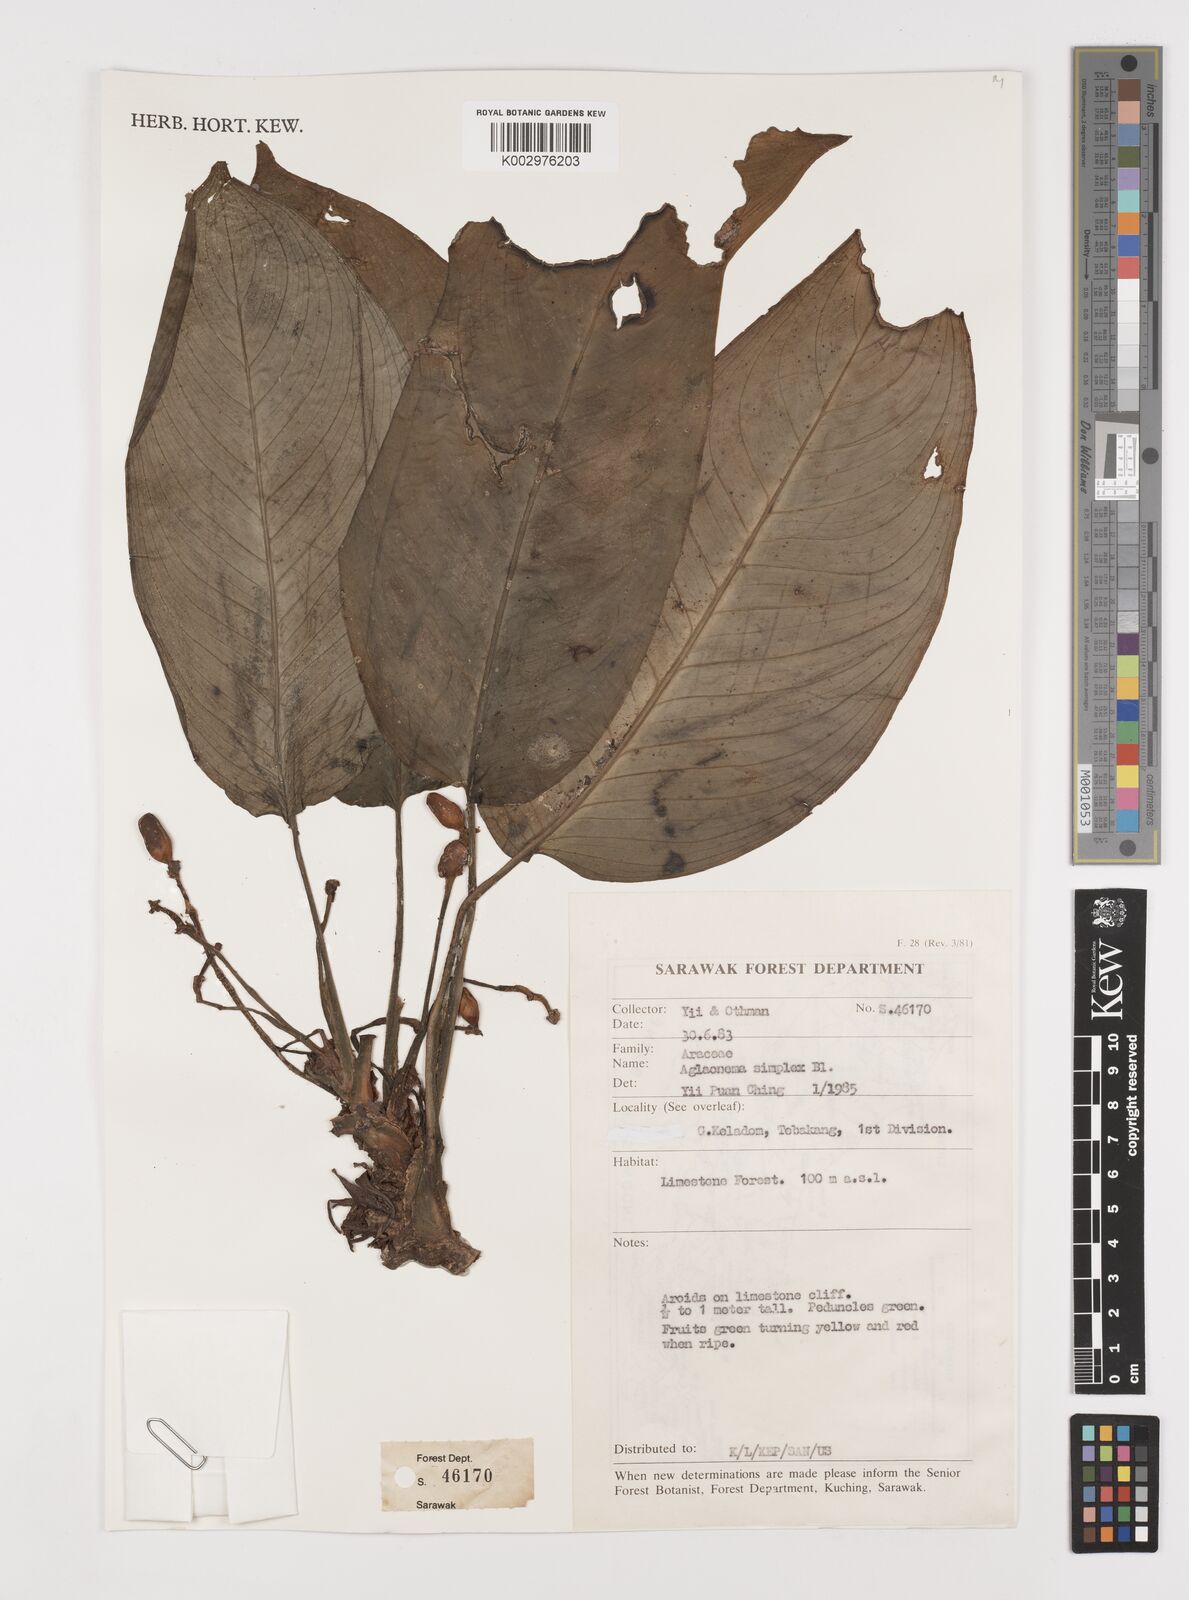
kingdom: Plantae
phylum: Tracheophyta
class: Liliopsida
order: Alismatales
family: Araceae
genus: Aglaonema
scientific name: Aglaonema simplex
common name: Malayan-sword
